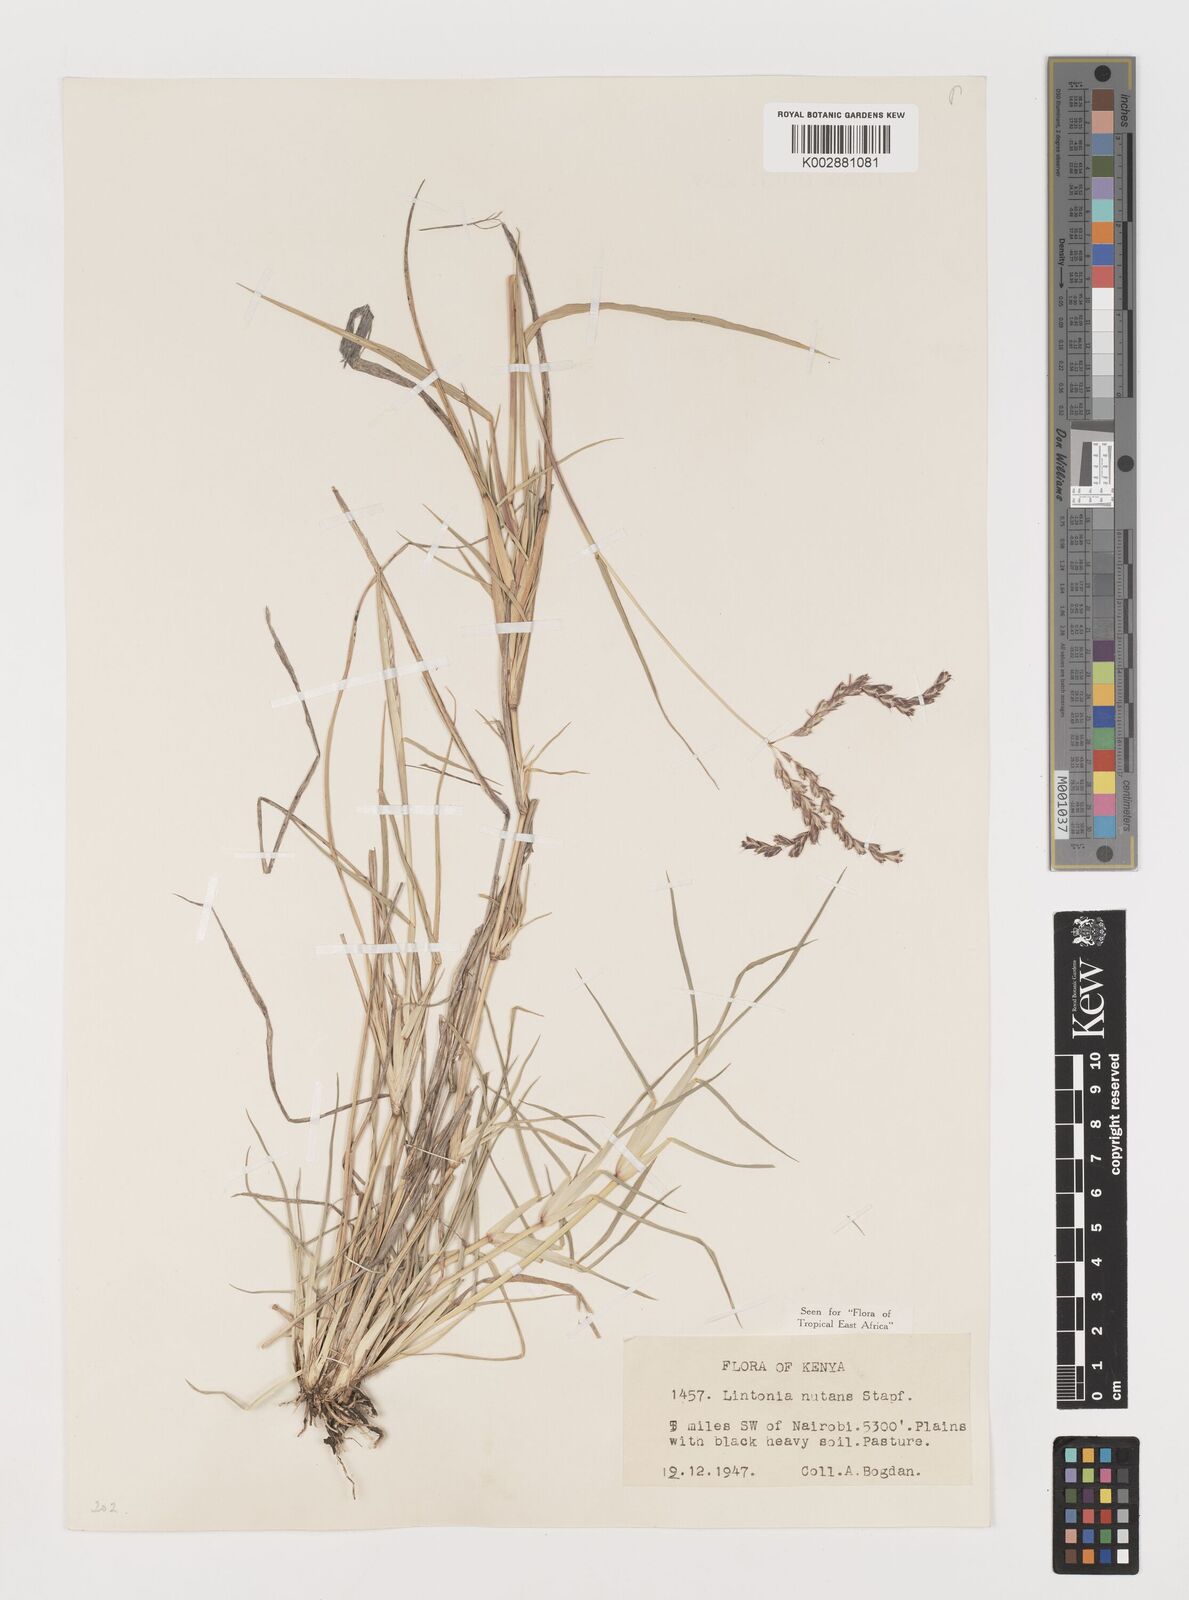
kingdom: Plantae
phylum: Tracheophyta
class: Liliopsida
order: Poales
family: Poaceae
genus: Chloris
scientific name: Chloris nutans
